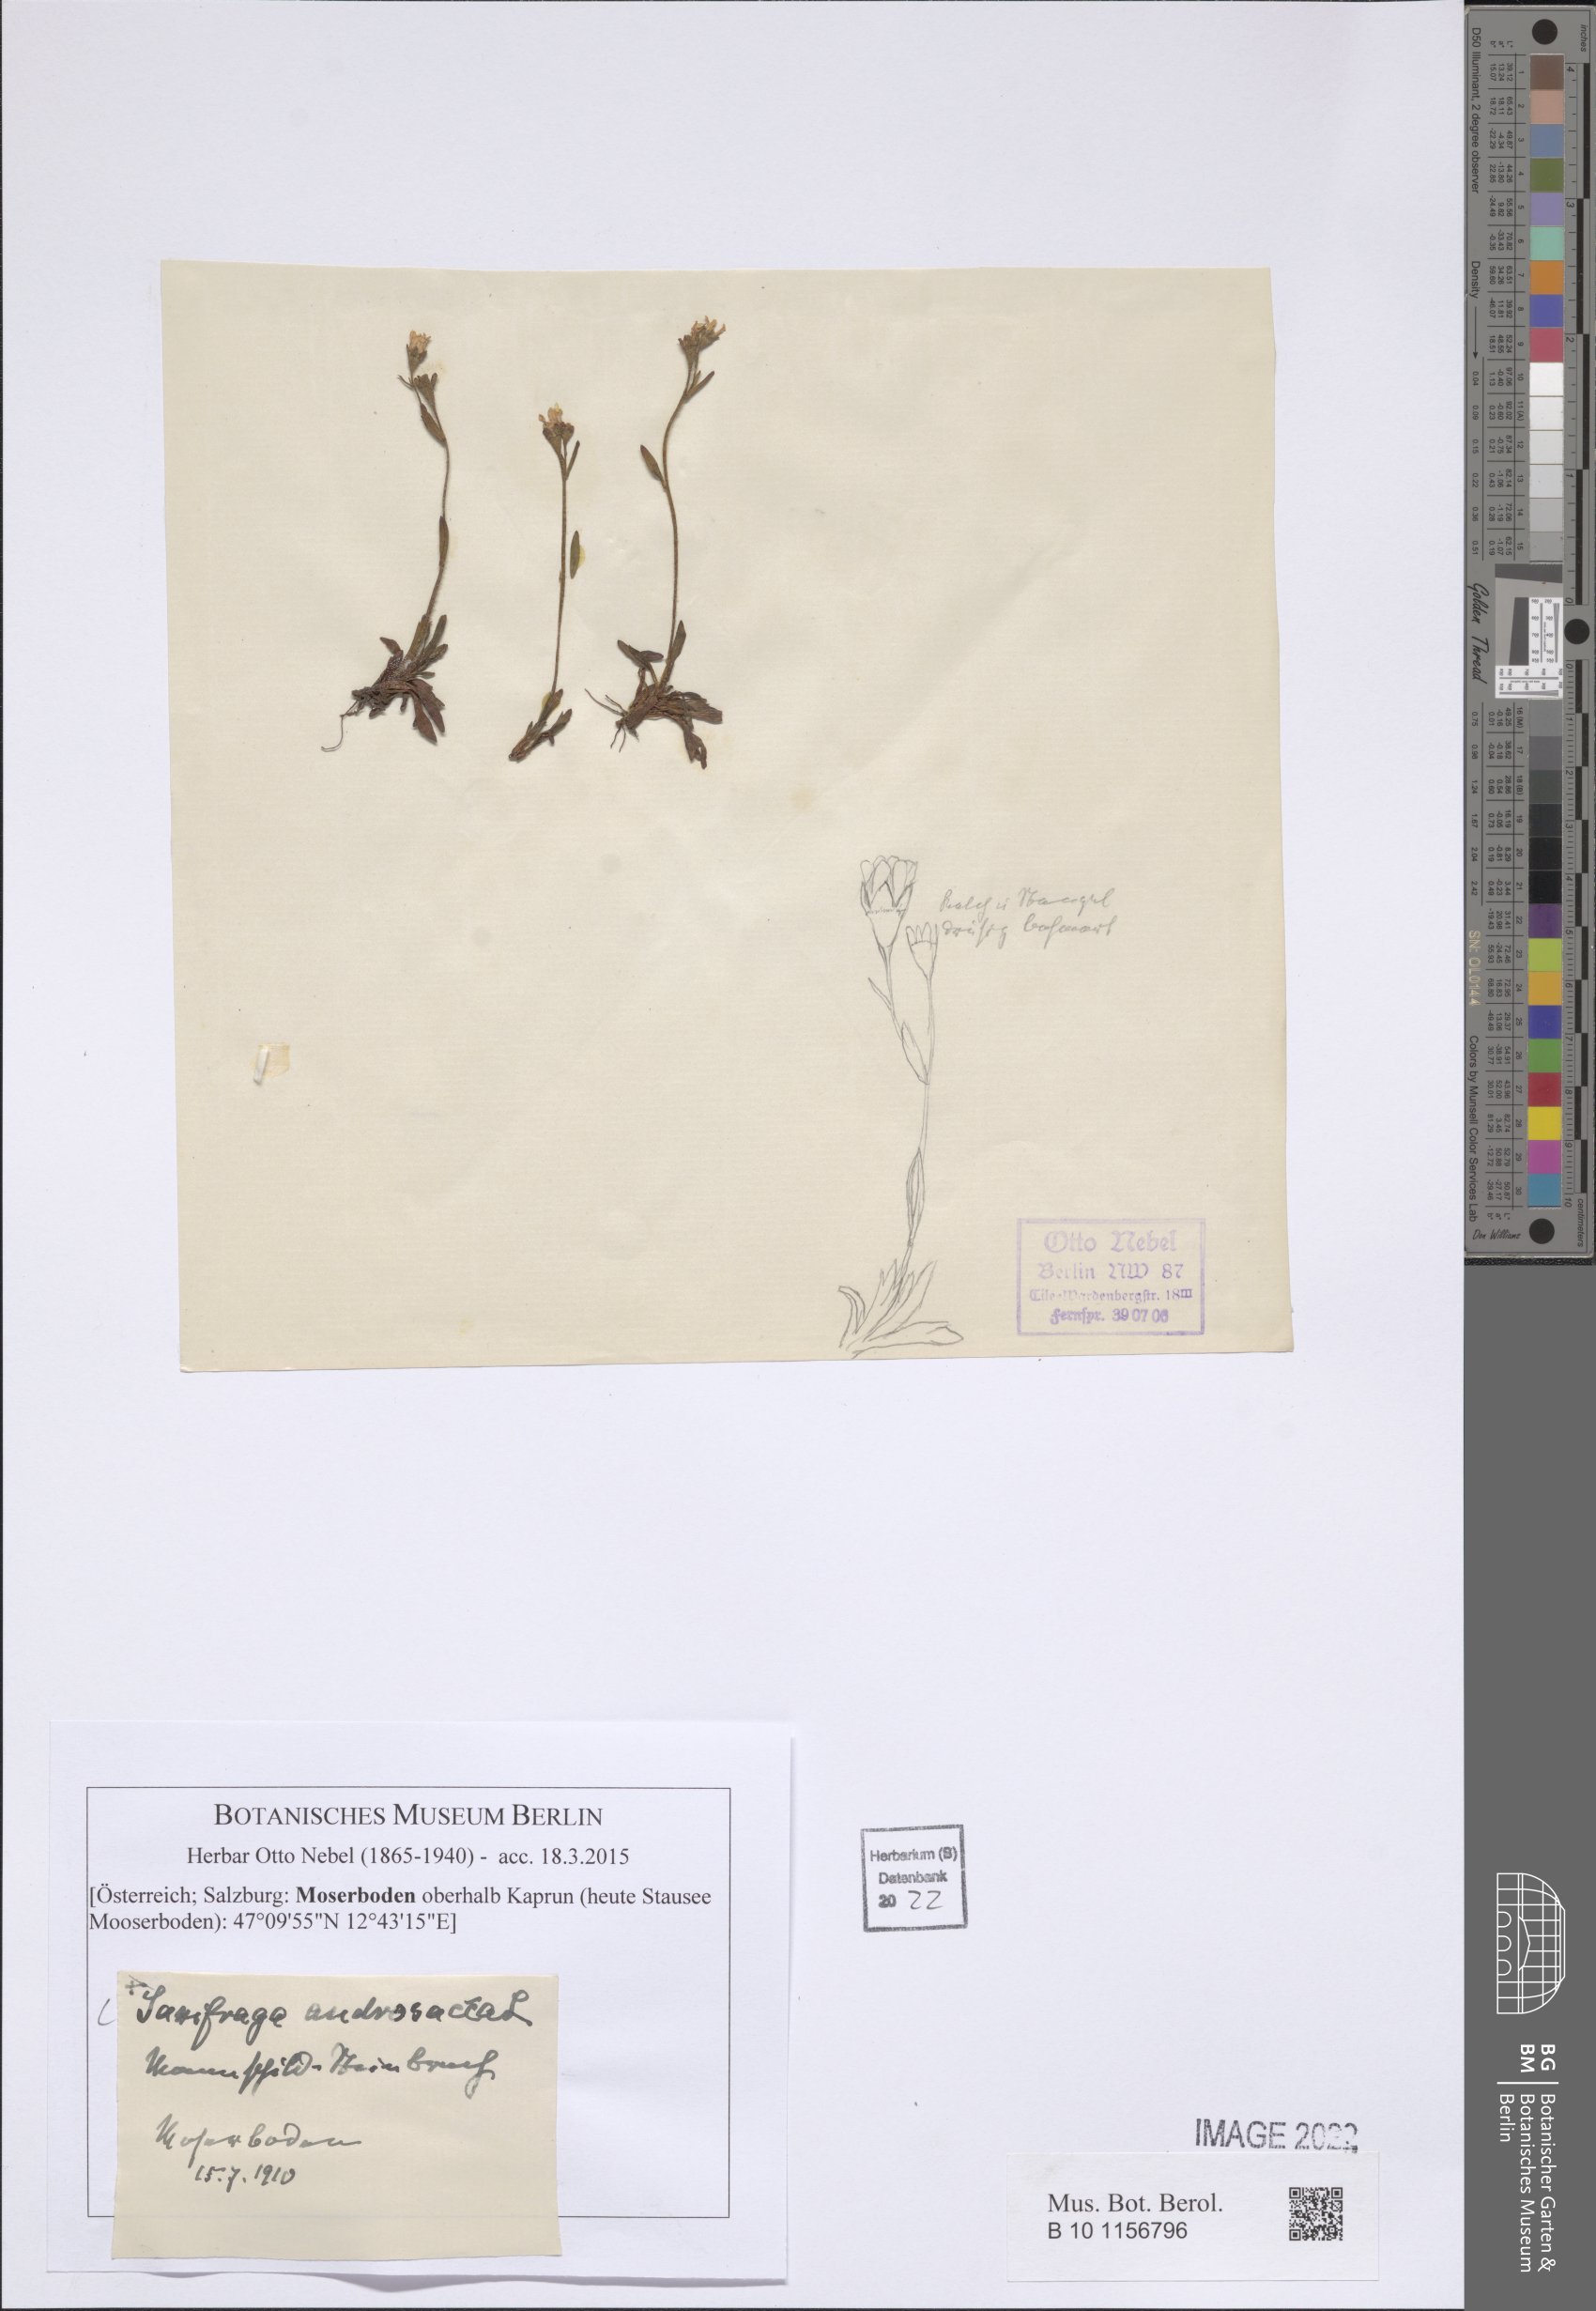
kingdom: Plantae
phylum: Tracheophyta
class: Magnoliopsida
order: Saxifragales
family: Saxifragaceae
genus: Saxifraga
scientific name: Saxifraga androsacea
